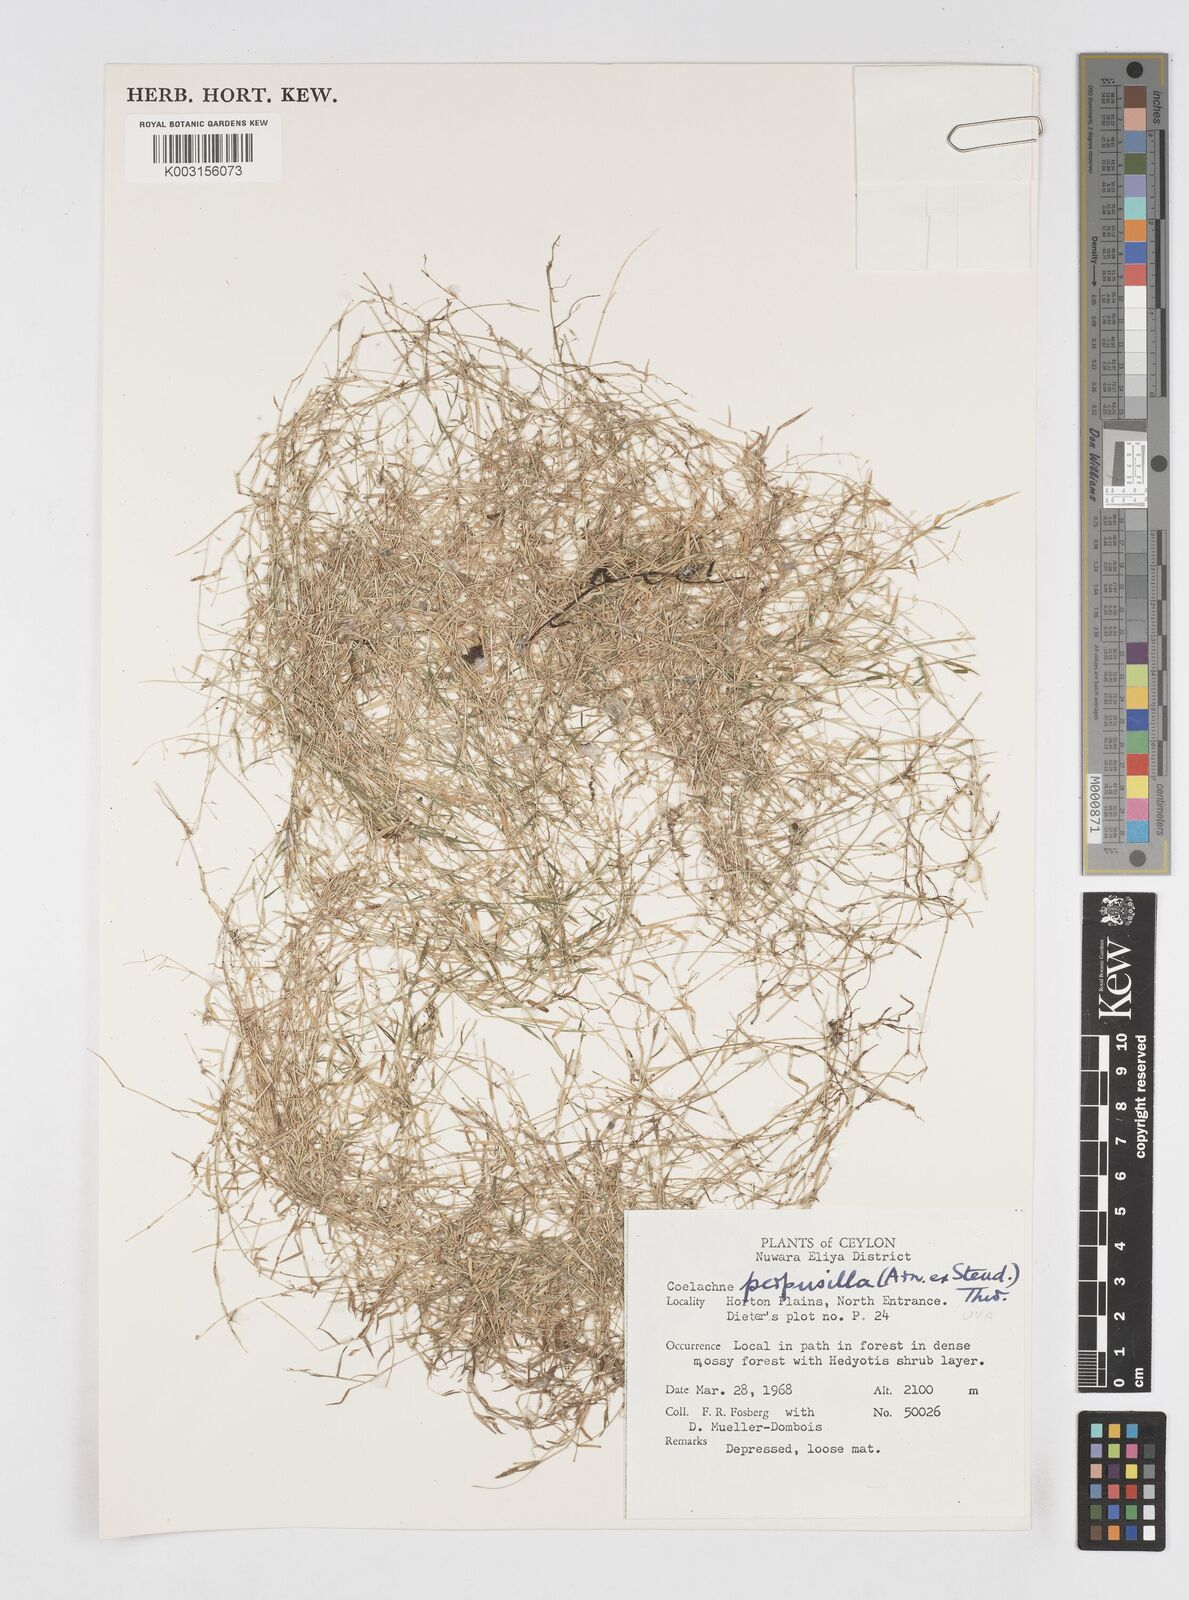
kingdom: Plantae
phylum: Tracheophyta
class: Liliopsida
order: Poales
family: Poaceae
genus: Coelachne
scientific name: Coelachne perpusilla
